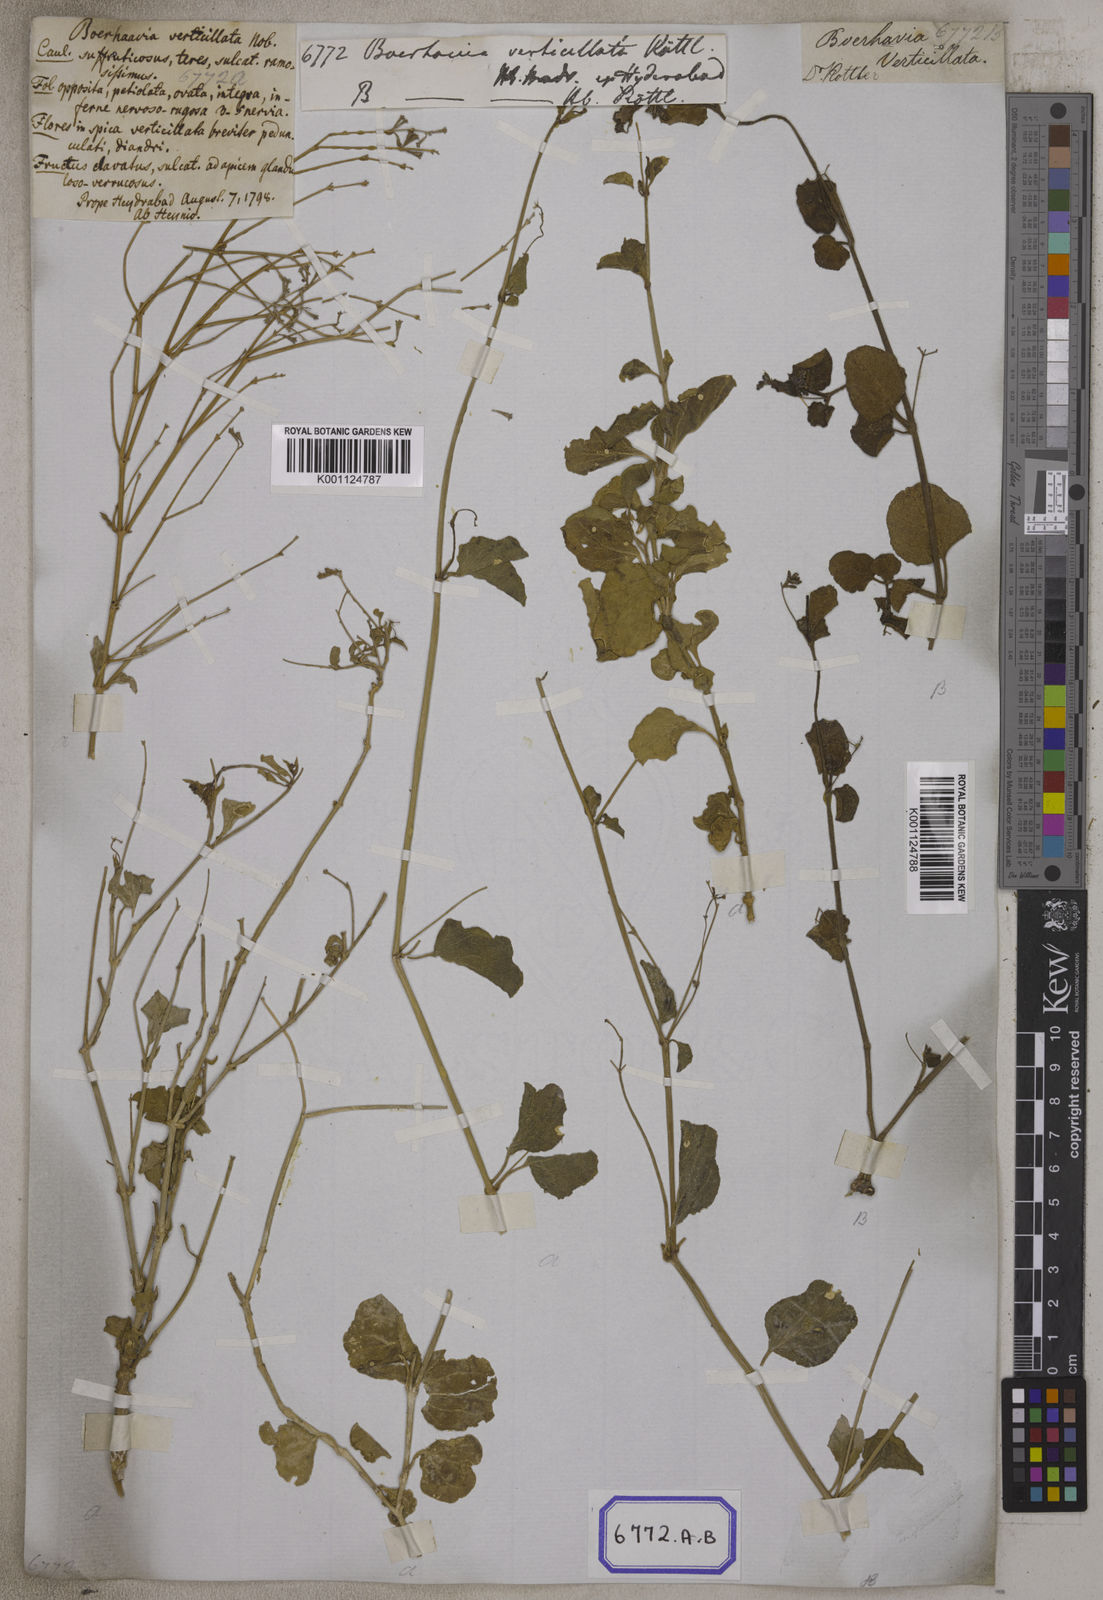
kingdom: Plantae
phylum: Tracheophyta
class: Magnoliopsida
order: Caryophyllales
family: Nyctaginaceae
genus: Commicarpus
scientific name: Commicarpus plumbagineus
